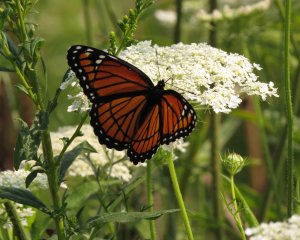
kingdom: Animalia
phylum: Arthropoda
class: Insecta
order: Lepidoptera
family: Nymphalidae
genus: Limenitis
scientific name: Limenitis archippus
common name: Viceroy
